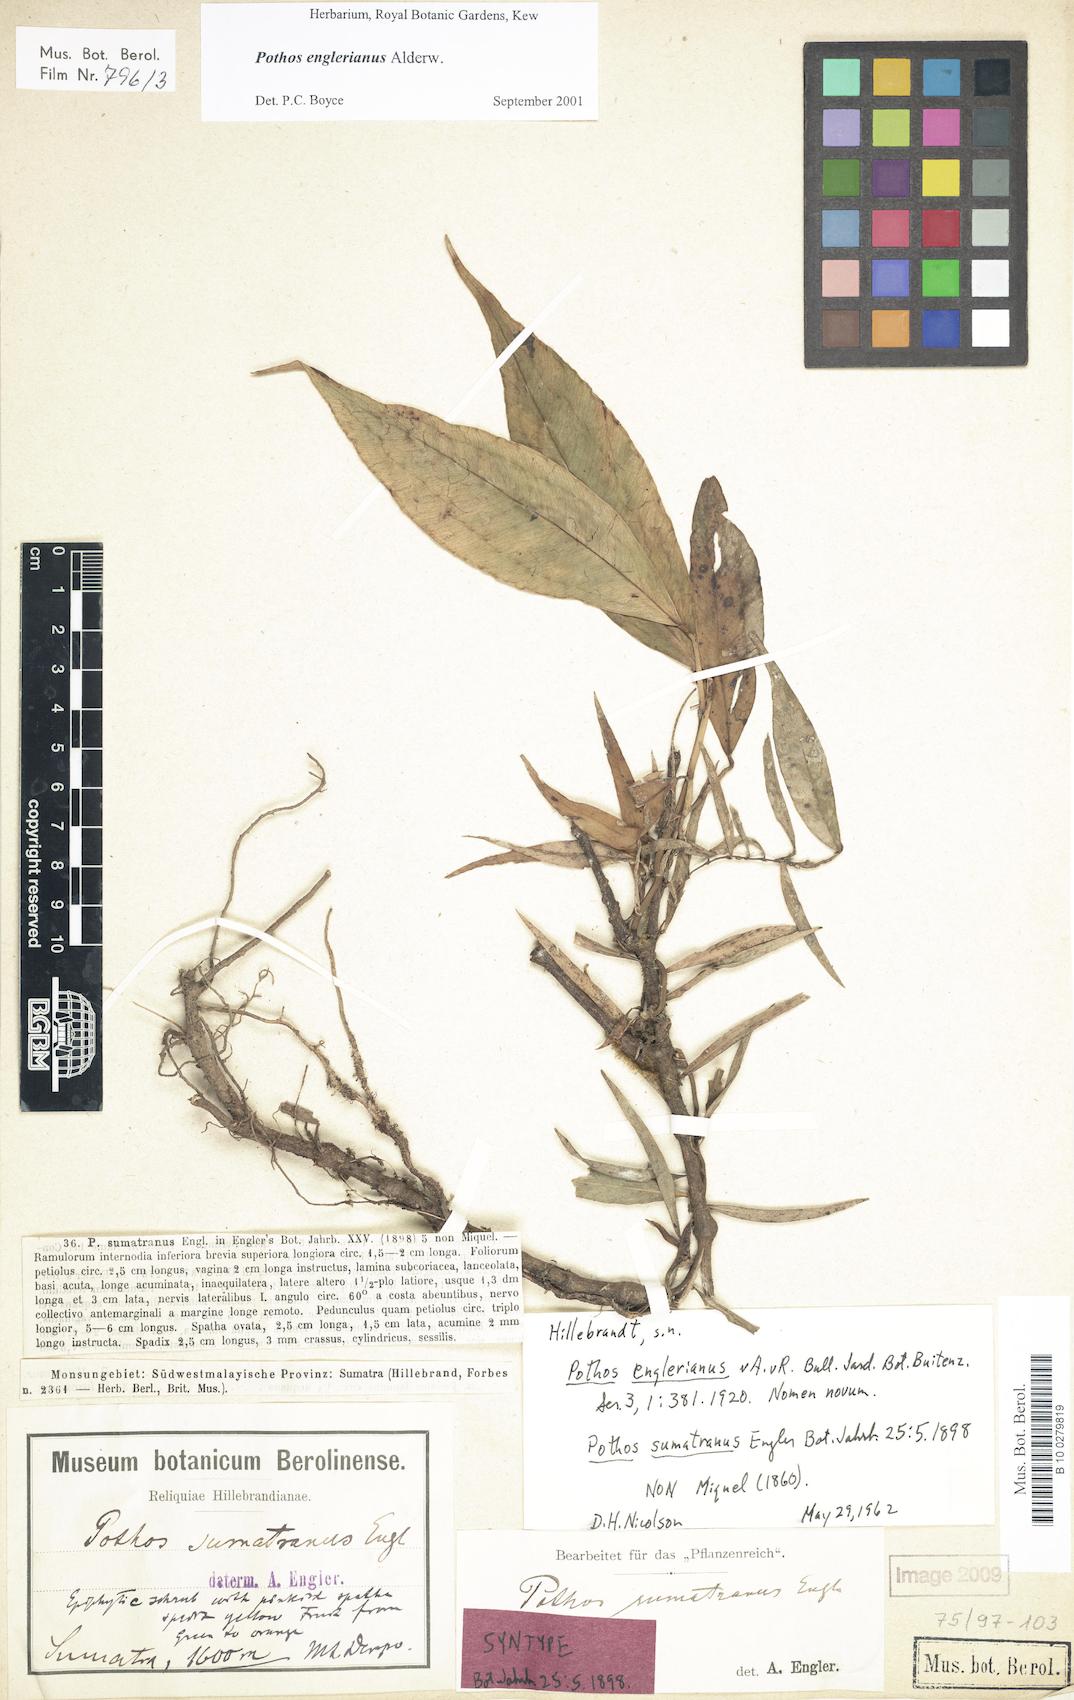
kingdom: Plantae
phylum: Tracheophyta
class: Liliopsida
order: Alismatales
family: Araceae
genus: Pothos
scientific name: Pothos englerianus
